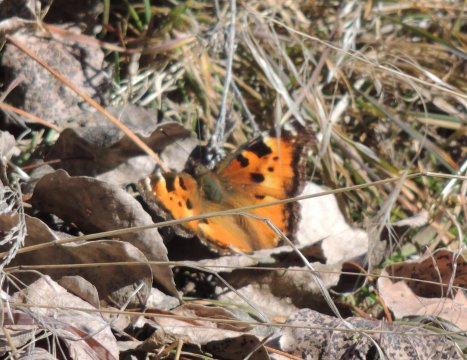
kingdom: Animalia
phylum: Arthropoda
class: Insecta
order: Lepidoptera
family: Nymphalidae
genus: Nymphalis
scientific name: Nymphalis californica
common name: California Tortoiseshell
